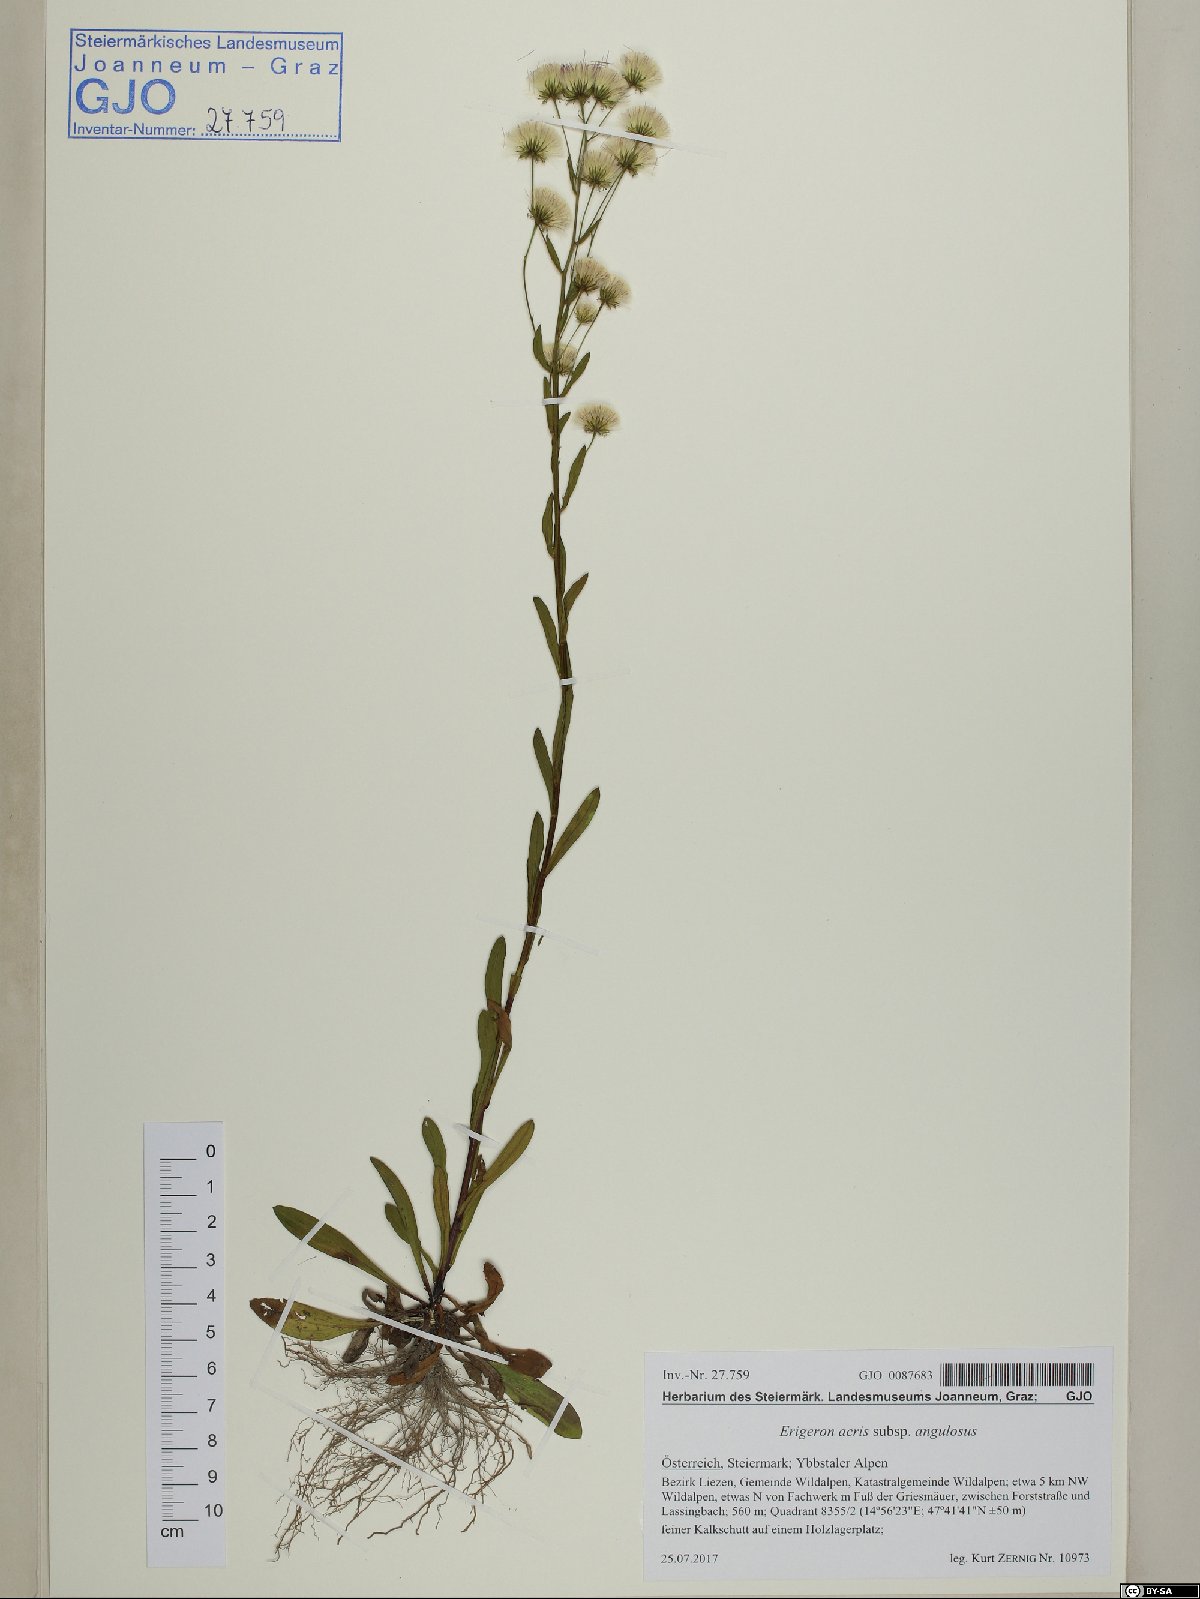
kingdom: Plantae
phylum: Tracheophyta
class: Magnoliopsida
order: Asterales
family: Asteraceae
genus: Erigeron
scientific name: Erigeron angulosus
